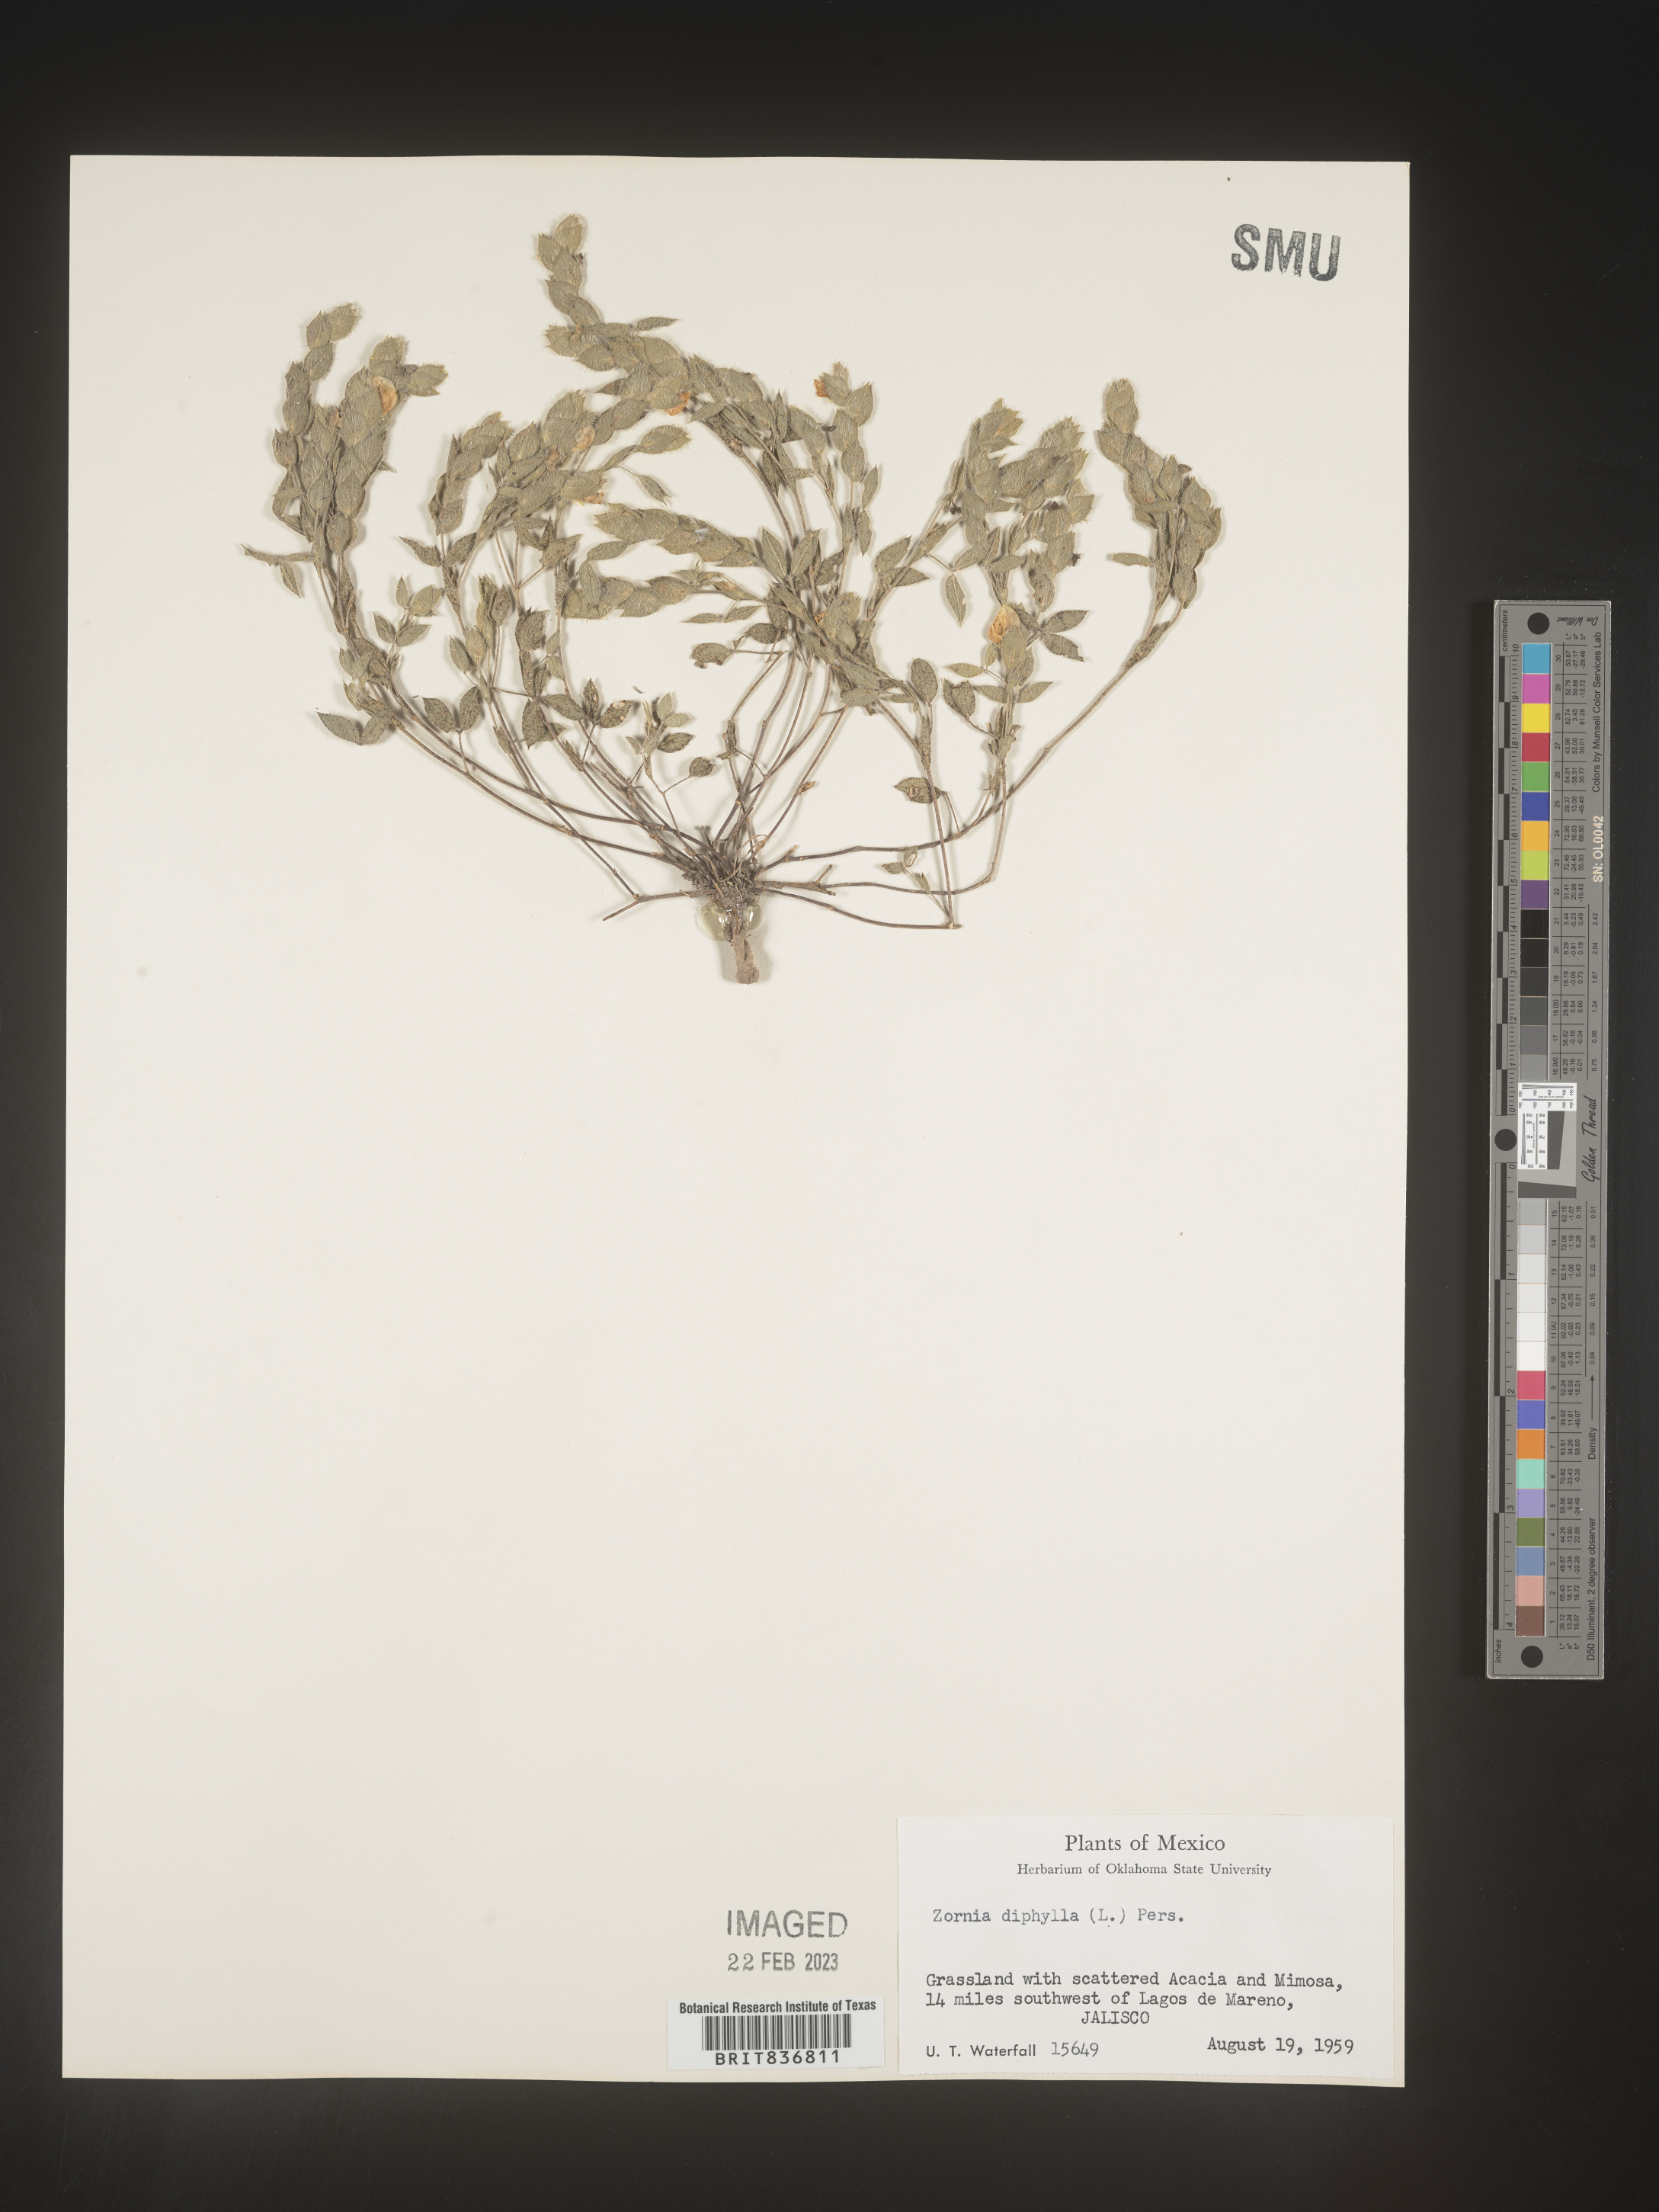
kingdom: Plantae
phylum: Tracheophyta
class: Magnoliopsida
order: Fabales
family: Fabaceae
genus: Zornia
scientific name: Zornia
